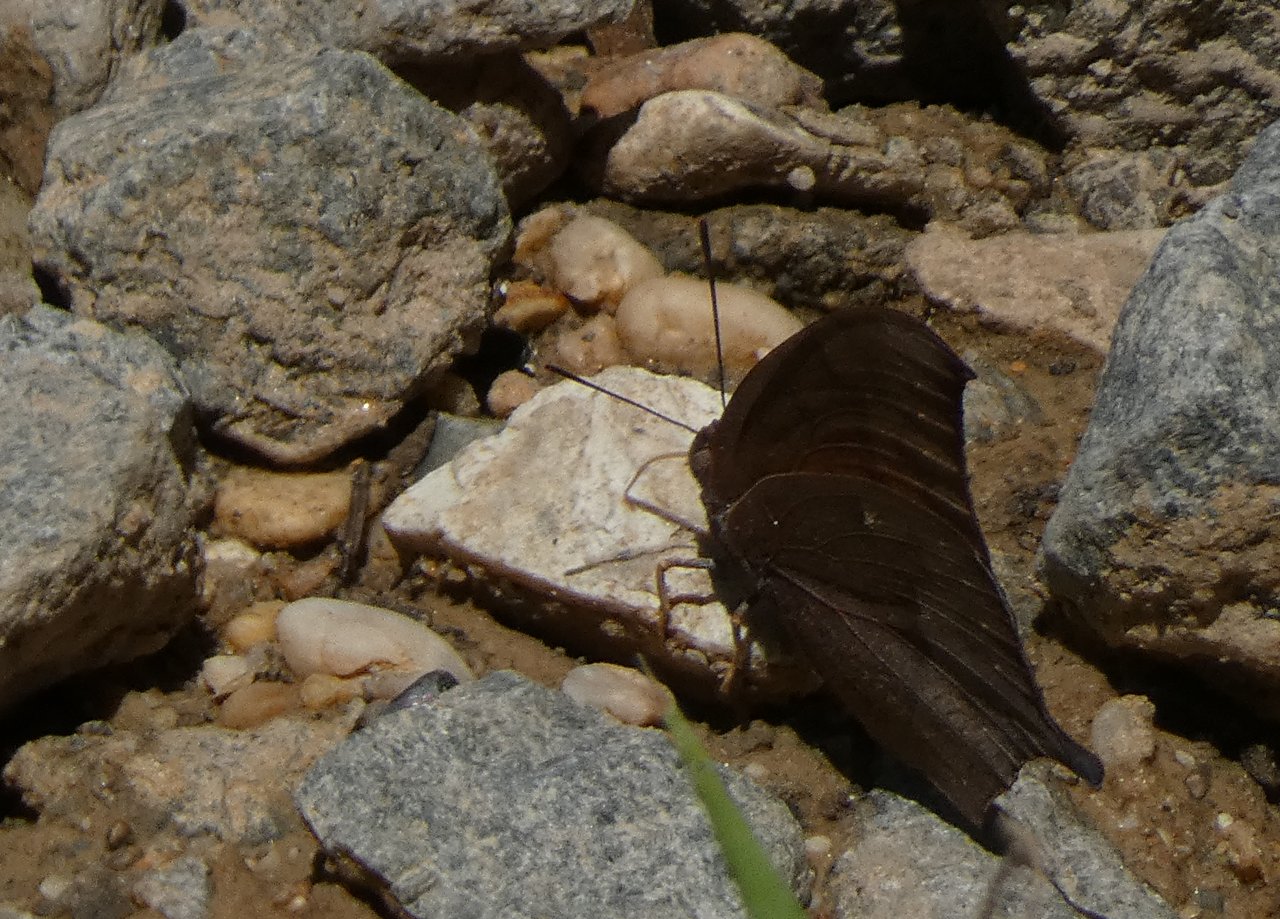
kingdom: Animalia
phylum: Arthropoda
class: Insecta
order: Lepidoptera
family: Nymphalidae
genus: Anaea
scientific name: Anaea andria
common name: Goatweed Leafwing
